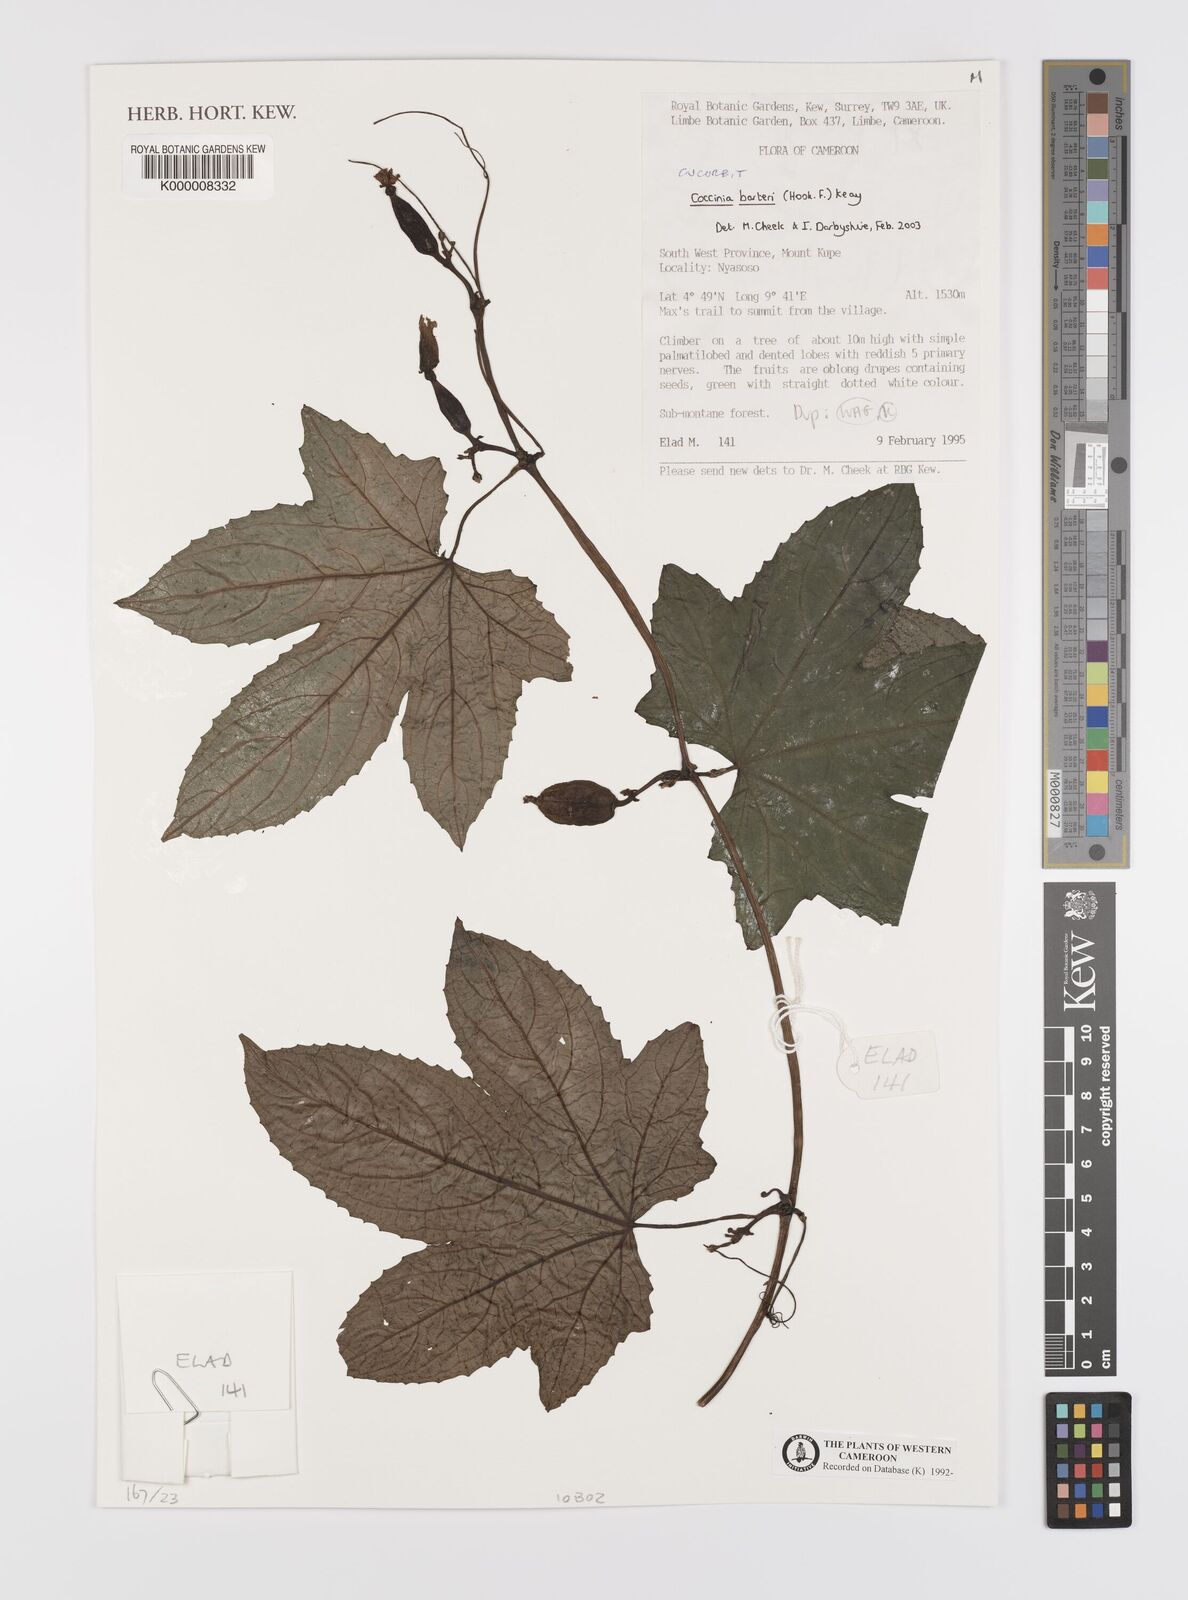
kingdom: Plantae
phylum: Tracheophyta
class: Magnoliopsida
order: Cucurbitales
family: Cucurbitaceae
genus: Coccinia
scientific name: Coccinia barteri
